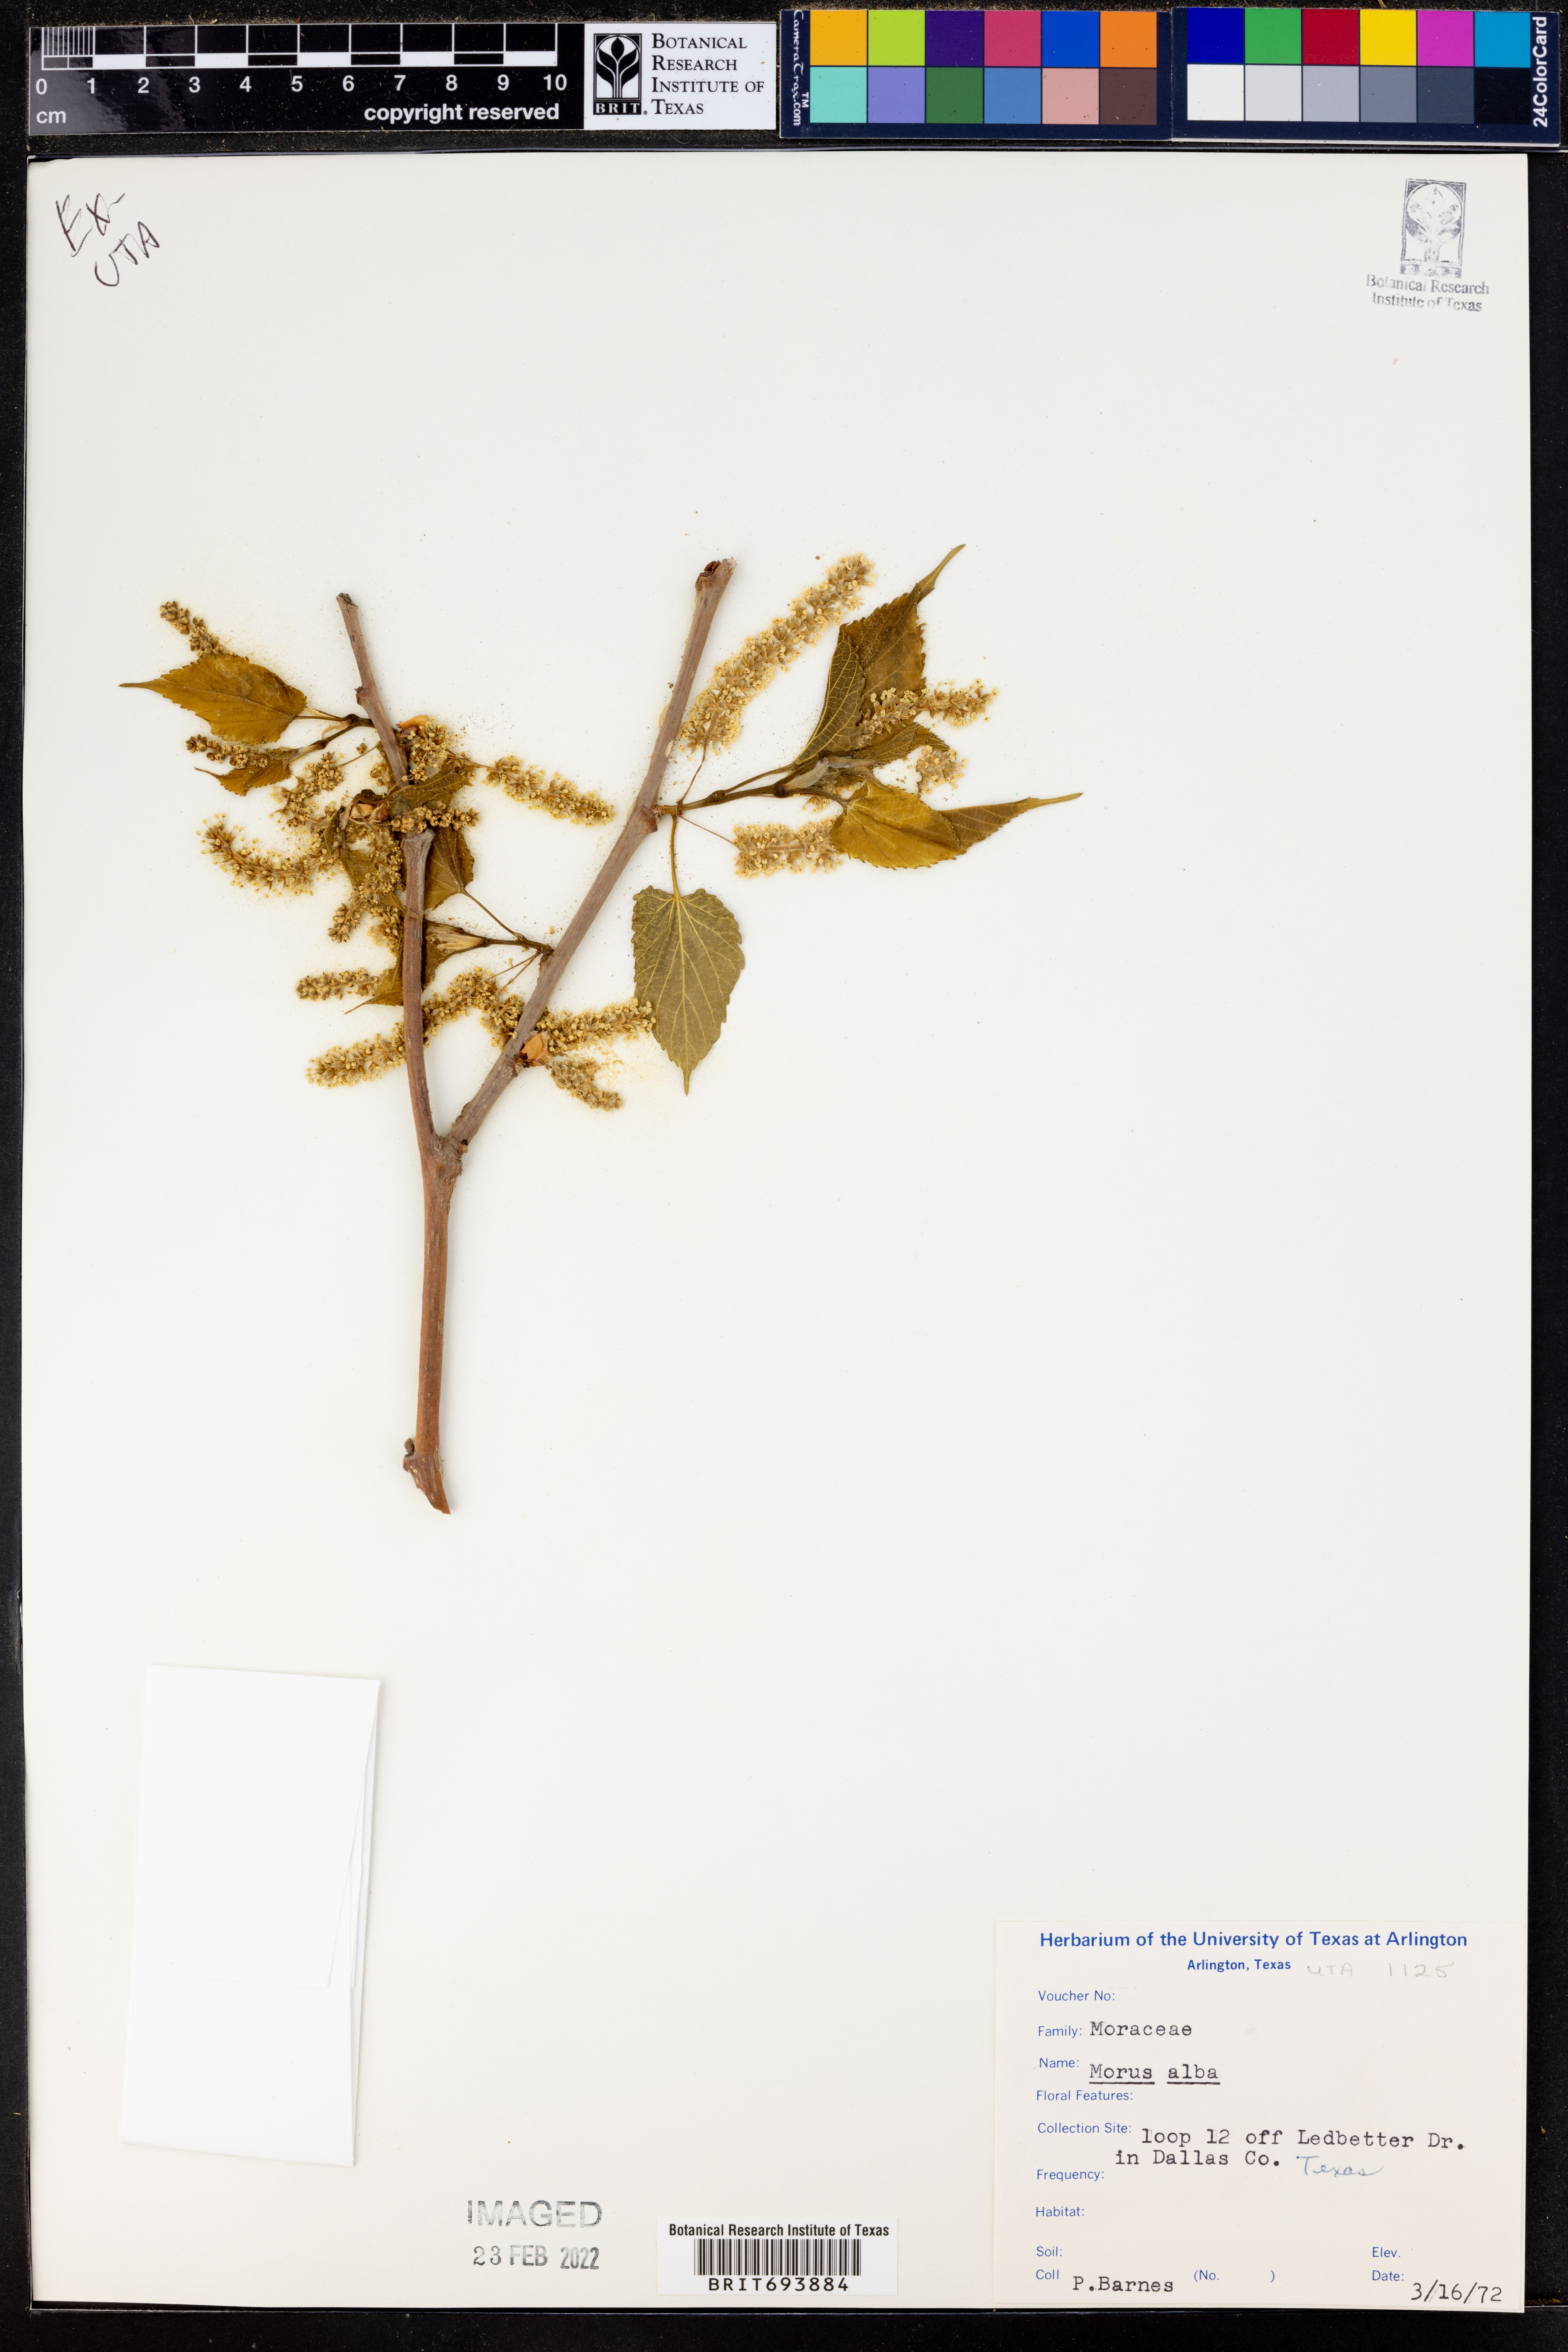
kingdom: Plantae
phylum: Tracheophyta
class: Magnoliopsida
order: Rosales
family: Moraceae
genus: Morus
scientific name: Morus alba
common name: White mulberry
